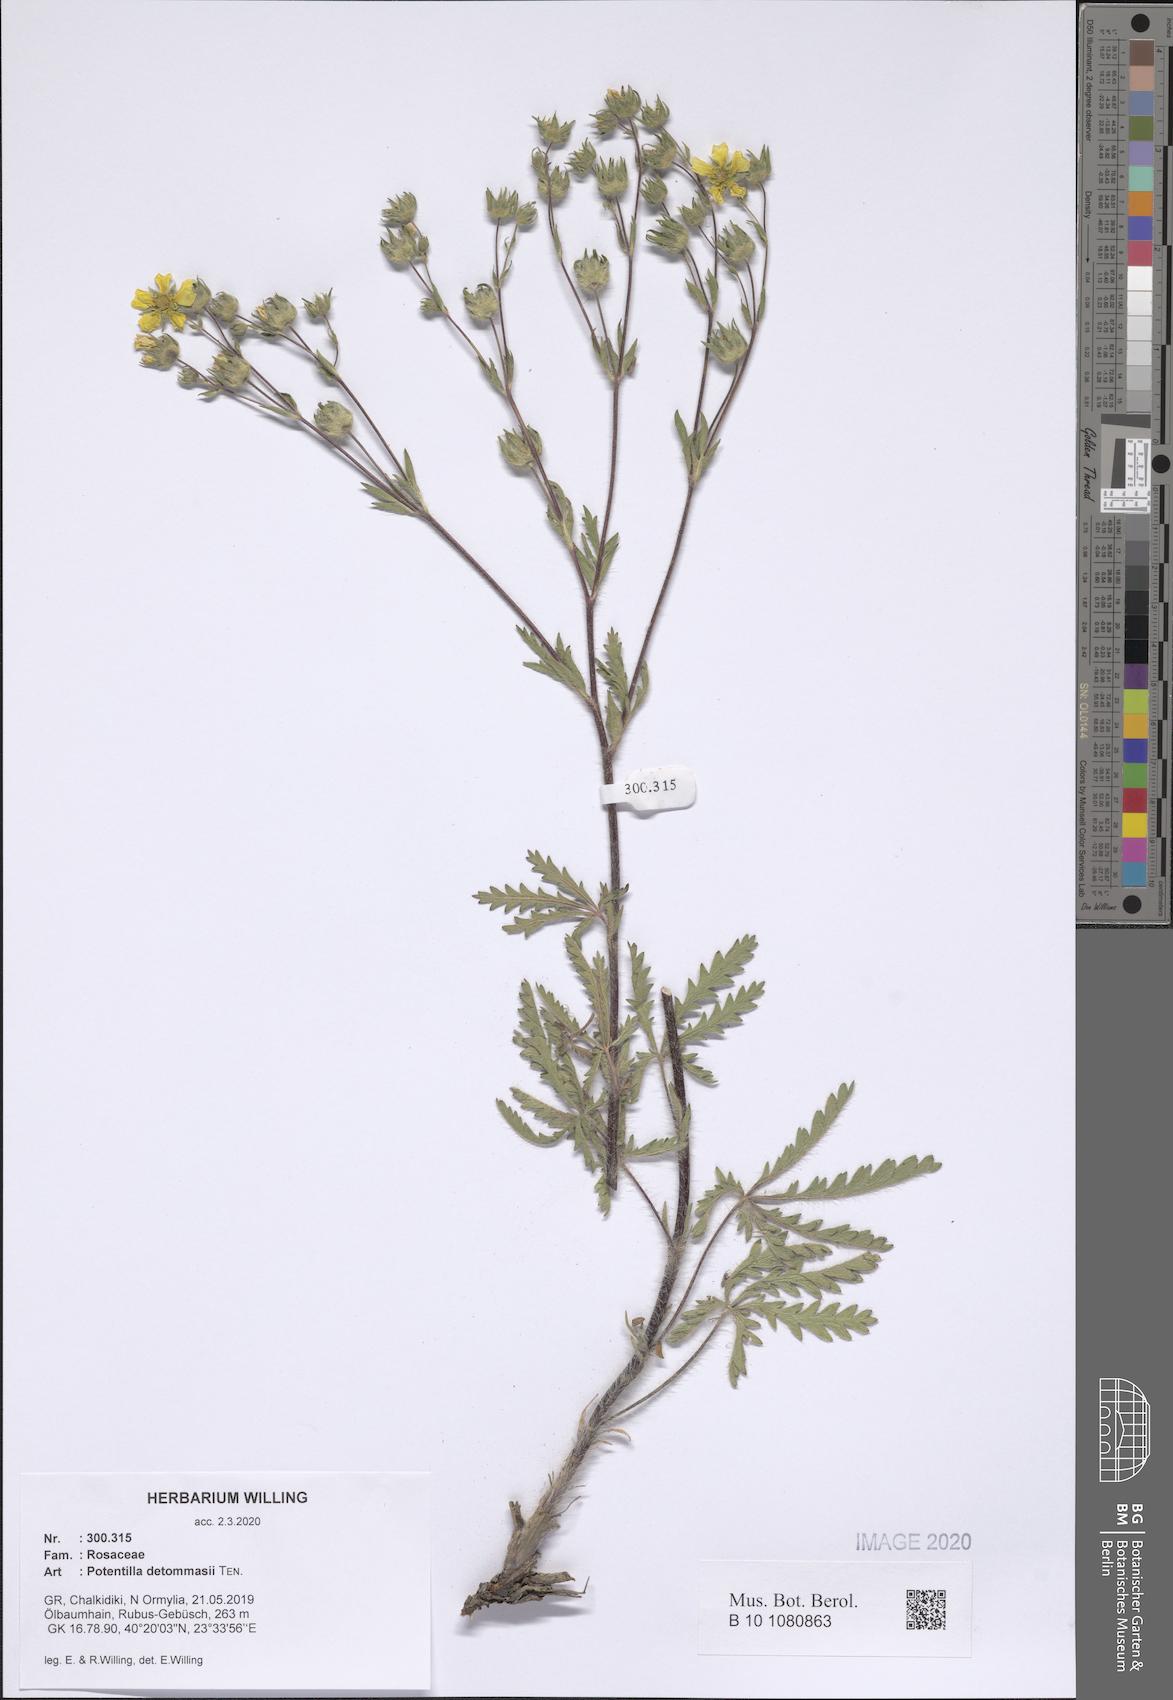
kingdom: Plantae
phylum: Tracheophyta
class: Magnoliopsida
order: Rosales
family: Rosaceae
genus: Potentilla
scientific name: Potentilla detommasii
